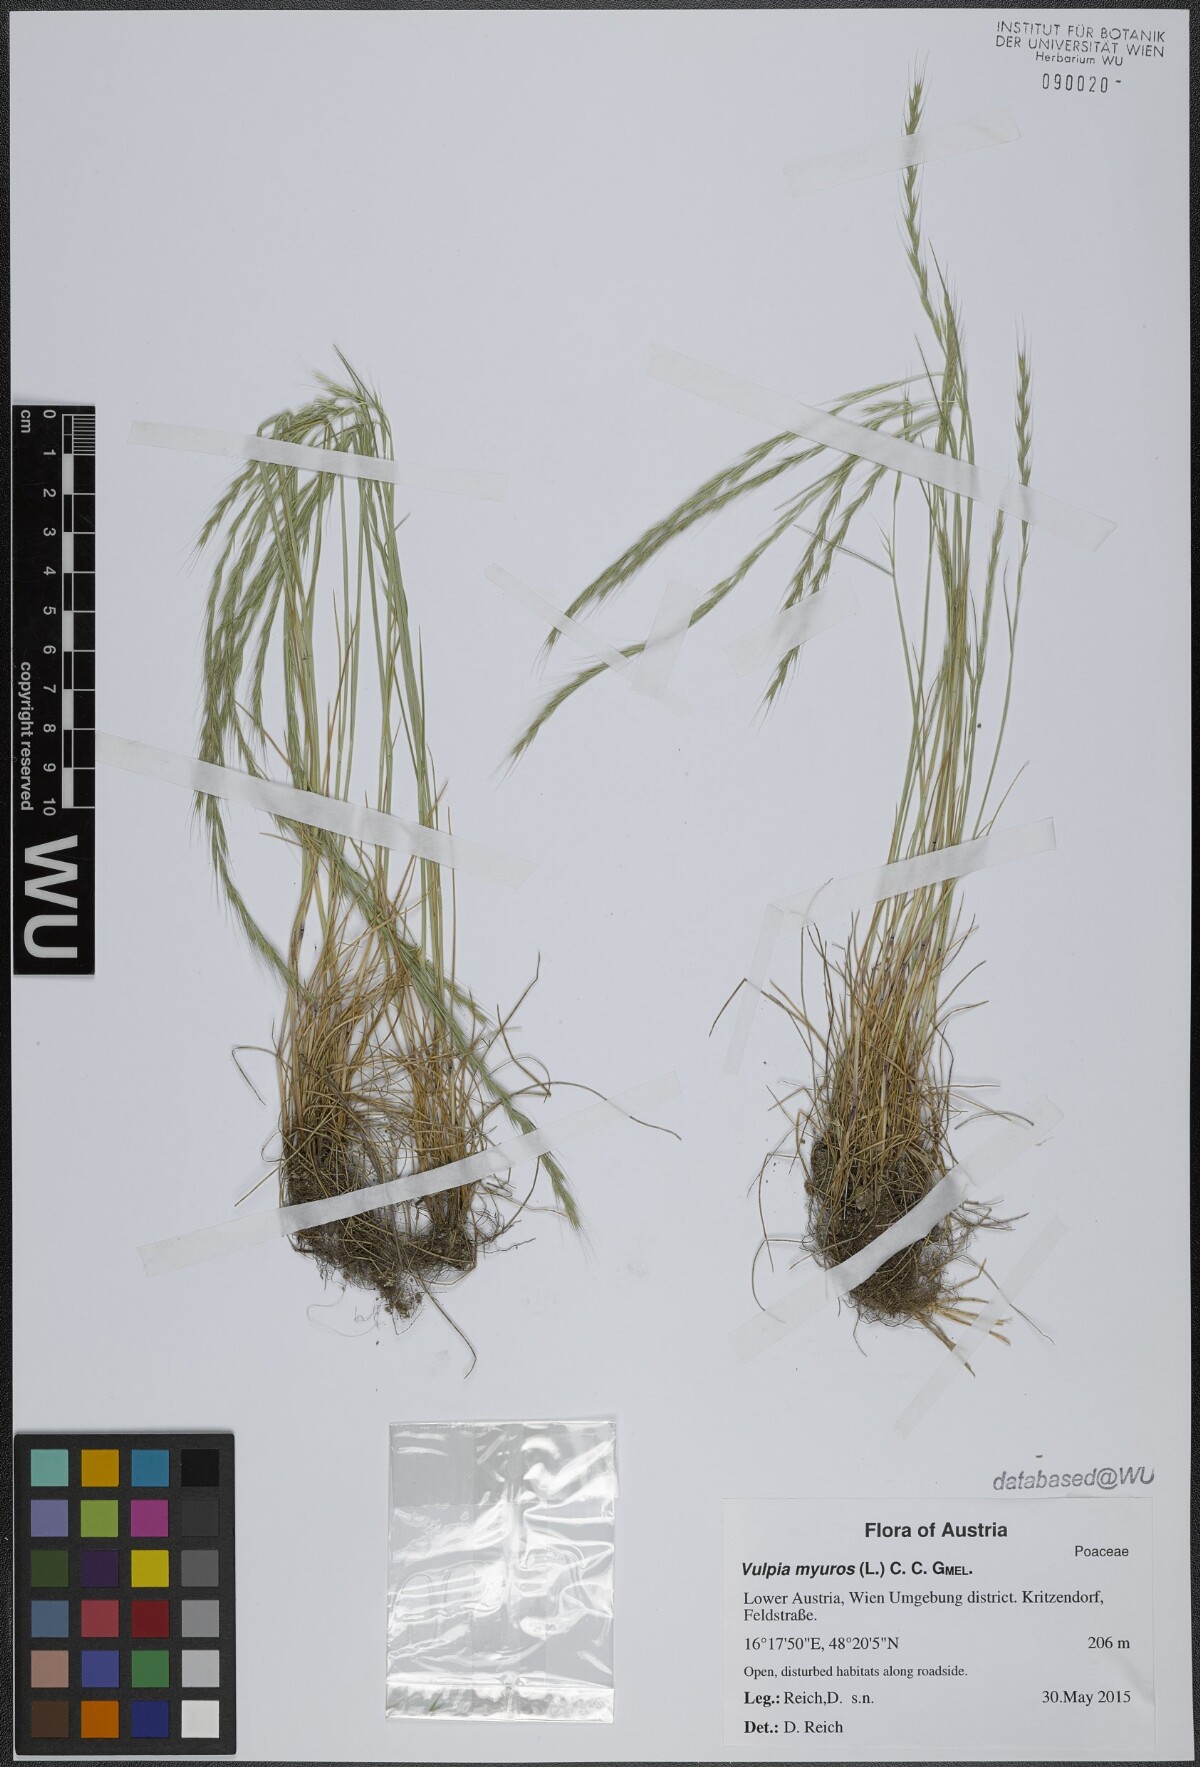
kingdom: Plantae
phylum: Tracheophyta
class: Liliopsida
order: Poales
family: Poaceae
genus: Festuca
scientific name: Festuca myuros
